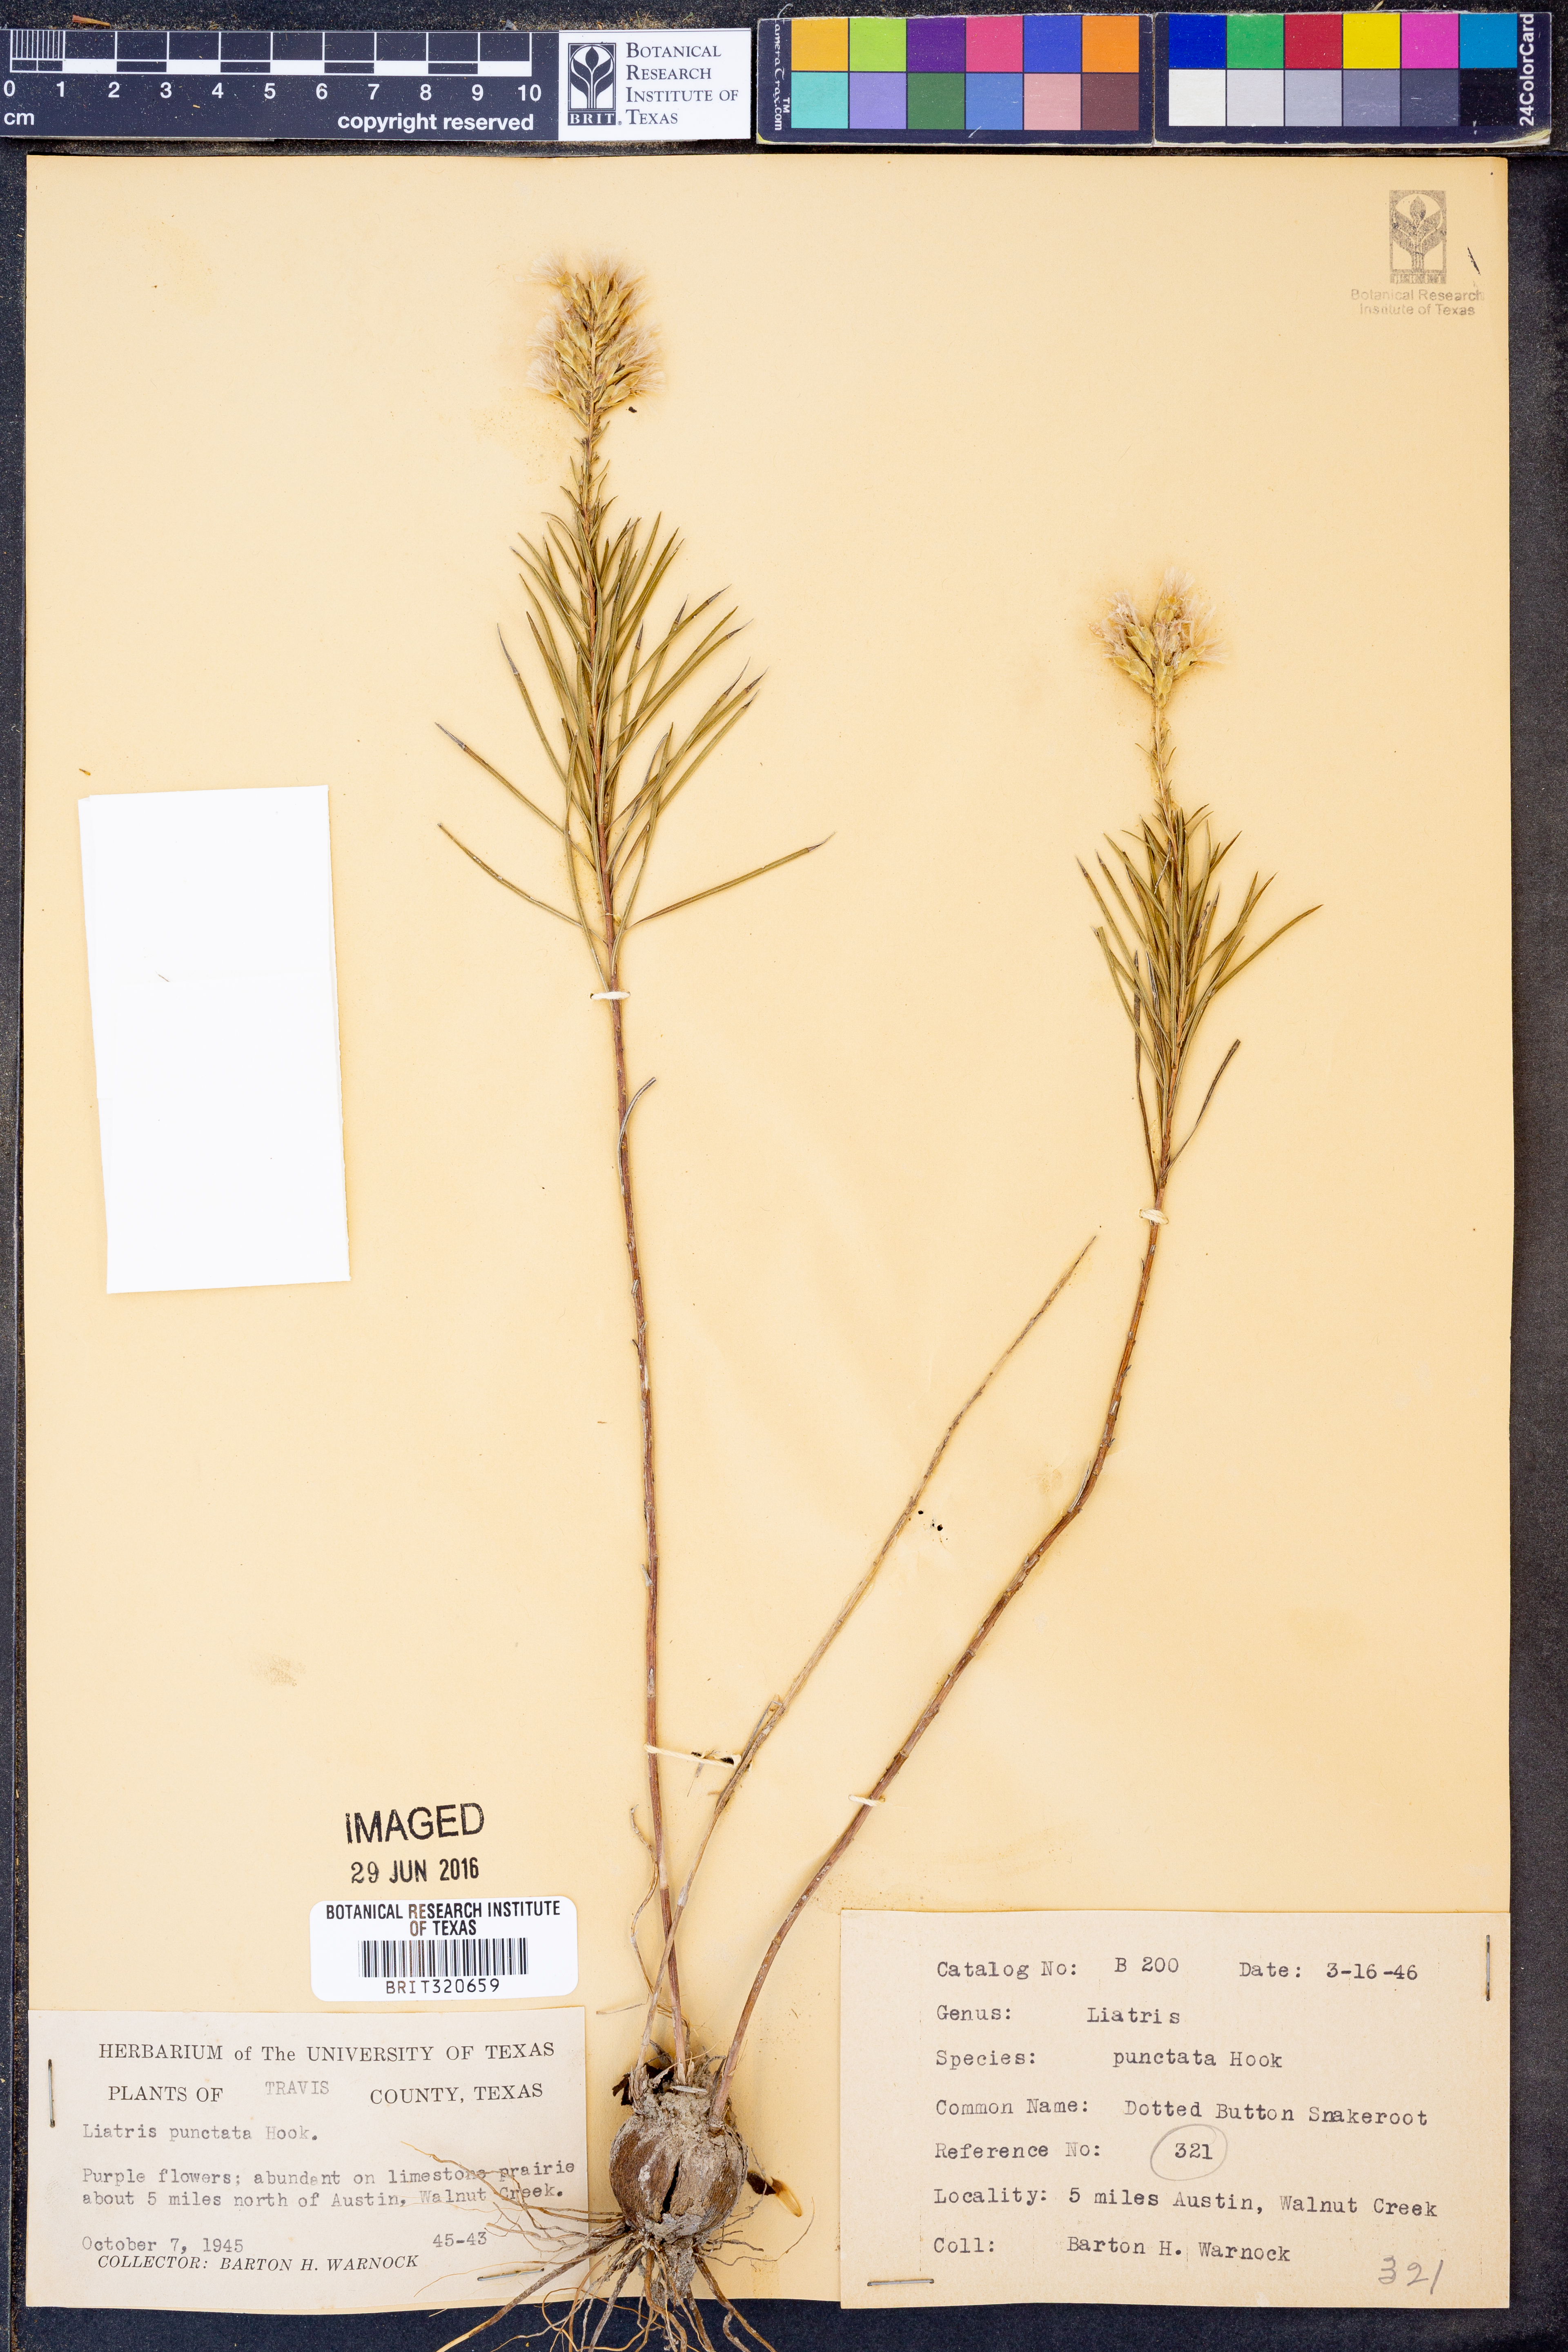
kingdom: Plantae
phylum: Tracheophyta
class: Magnoliopsida
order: Asterales
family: Asteraceae
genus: Liatris
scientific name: Liatris punctata
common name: Dotted gayfeather
